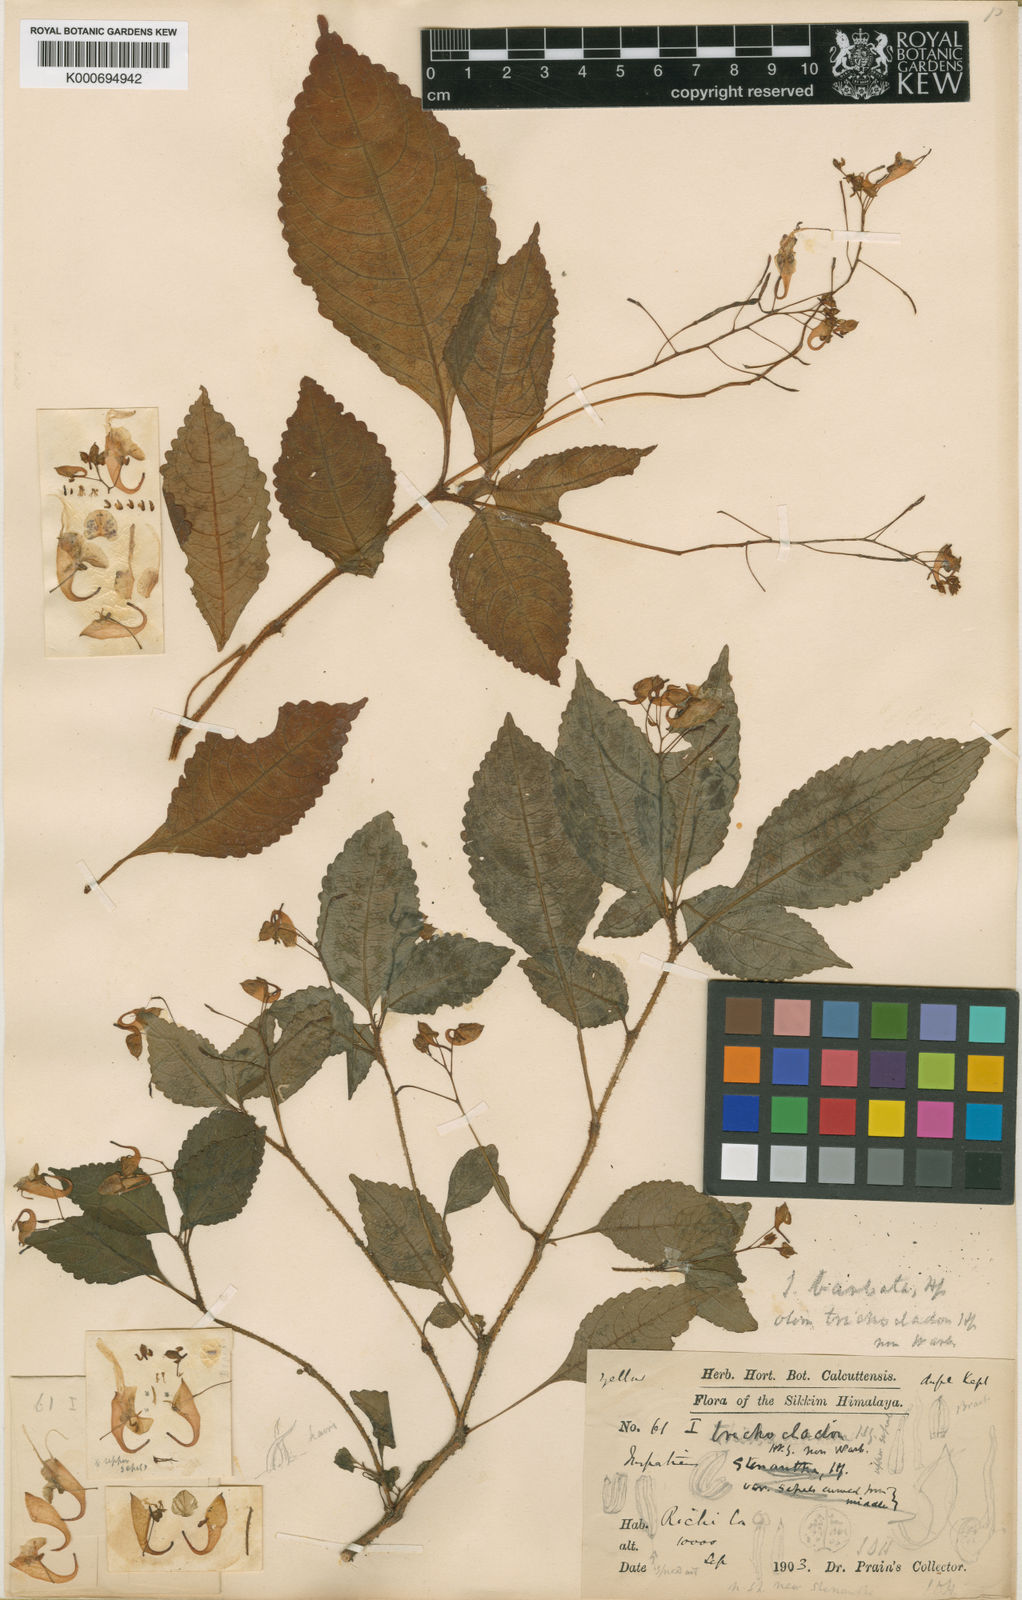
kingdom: Plantae
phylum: Tracheophyta
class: Magnoliopsida
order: Ericales
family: Balsaminaceae
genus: Impatiens
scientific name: Impatiens
